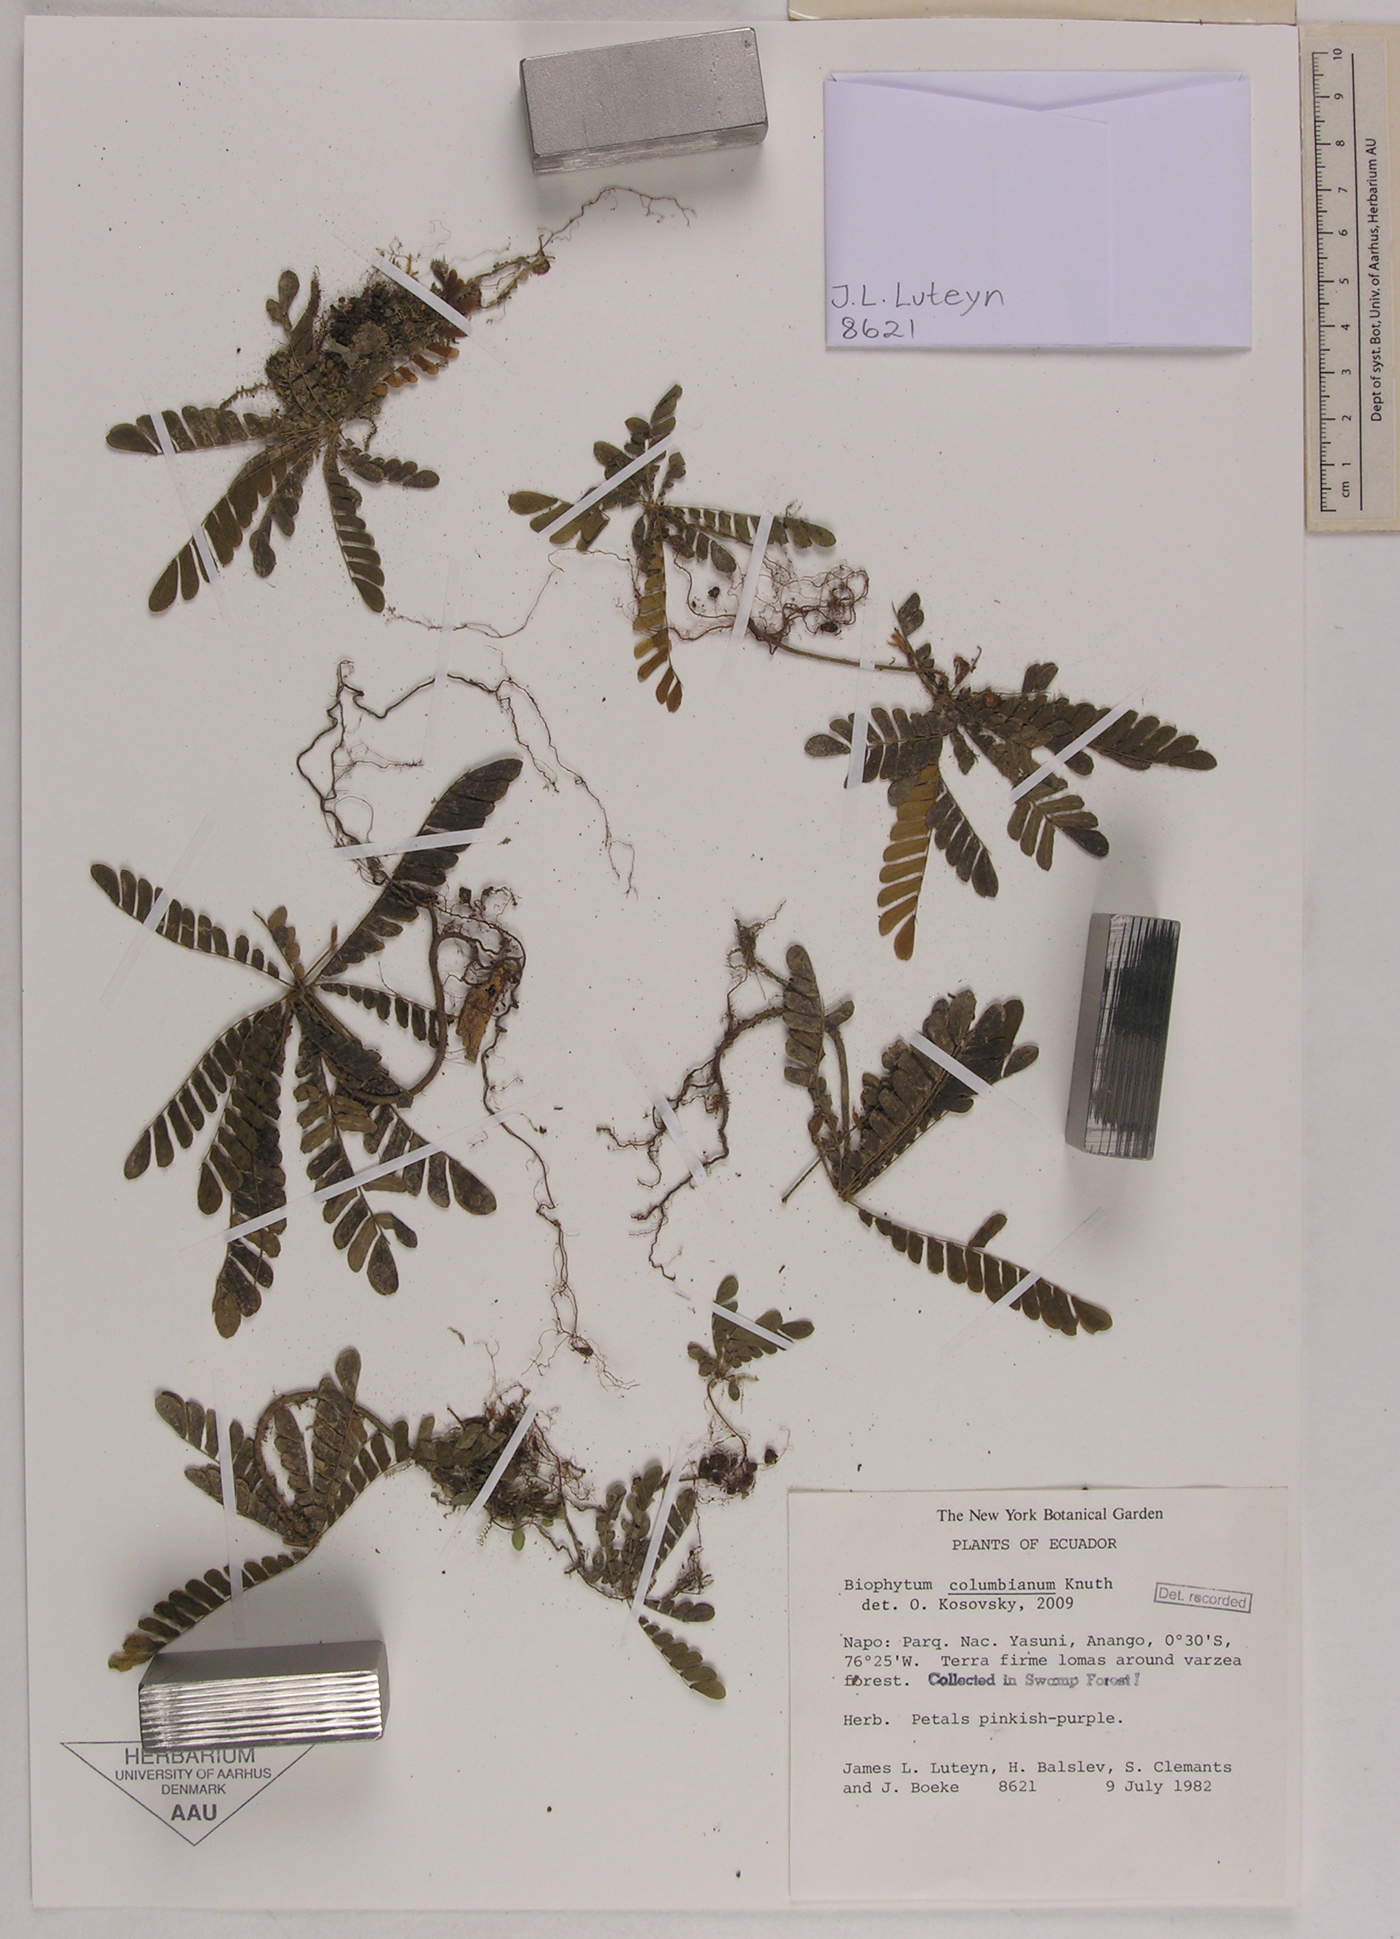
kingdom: Plantae
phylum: Tracheophyta
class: Magnoliopsida
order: Oxalidales
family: Oxalidaceae
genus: Biophytum
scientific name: Biophytum columbianum
